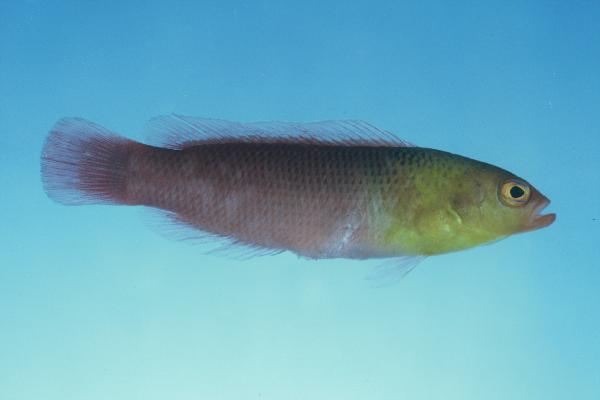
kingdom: Animalia
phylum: Chordata
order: Perciformes
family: Pseudochromidae
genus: Pseudochromis
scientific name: Pseudochromis kristinae
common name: Lipstick dottyback
